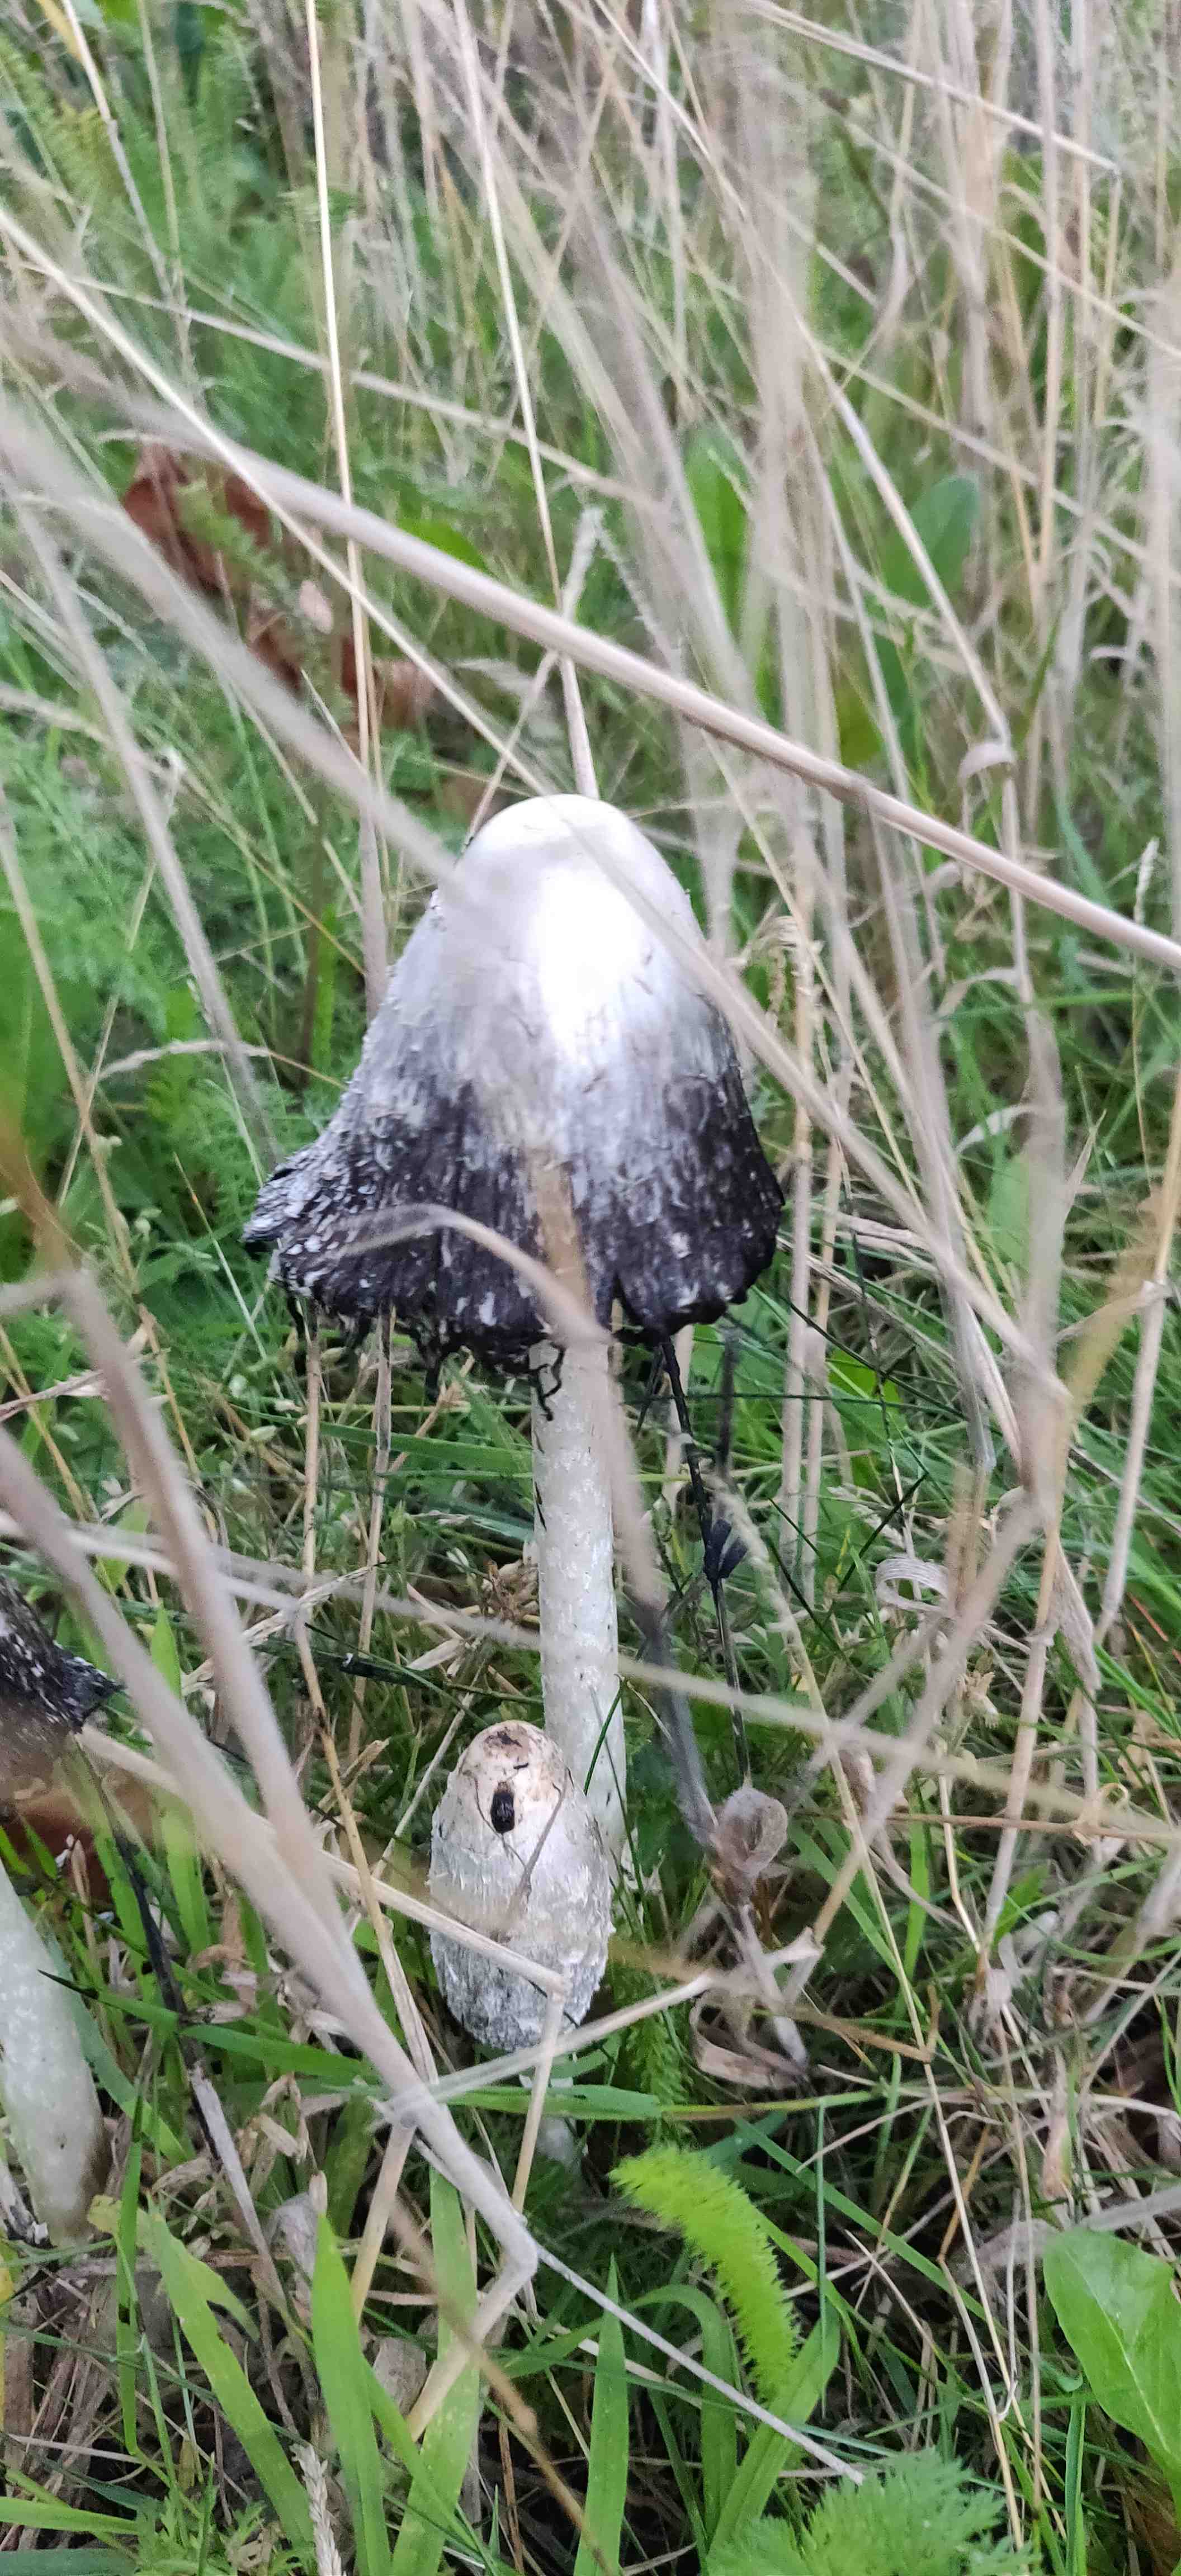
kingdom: Fungi
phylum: Basidiomycota
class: Agaricomycetes
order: Agaricales
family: Agaricaceae
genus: Coprinus
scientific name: Coprinus comatus
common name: stor parykhat
